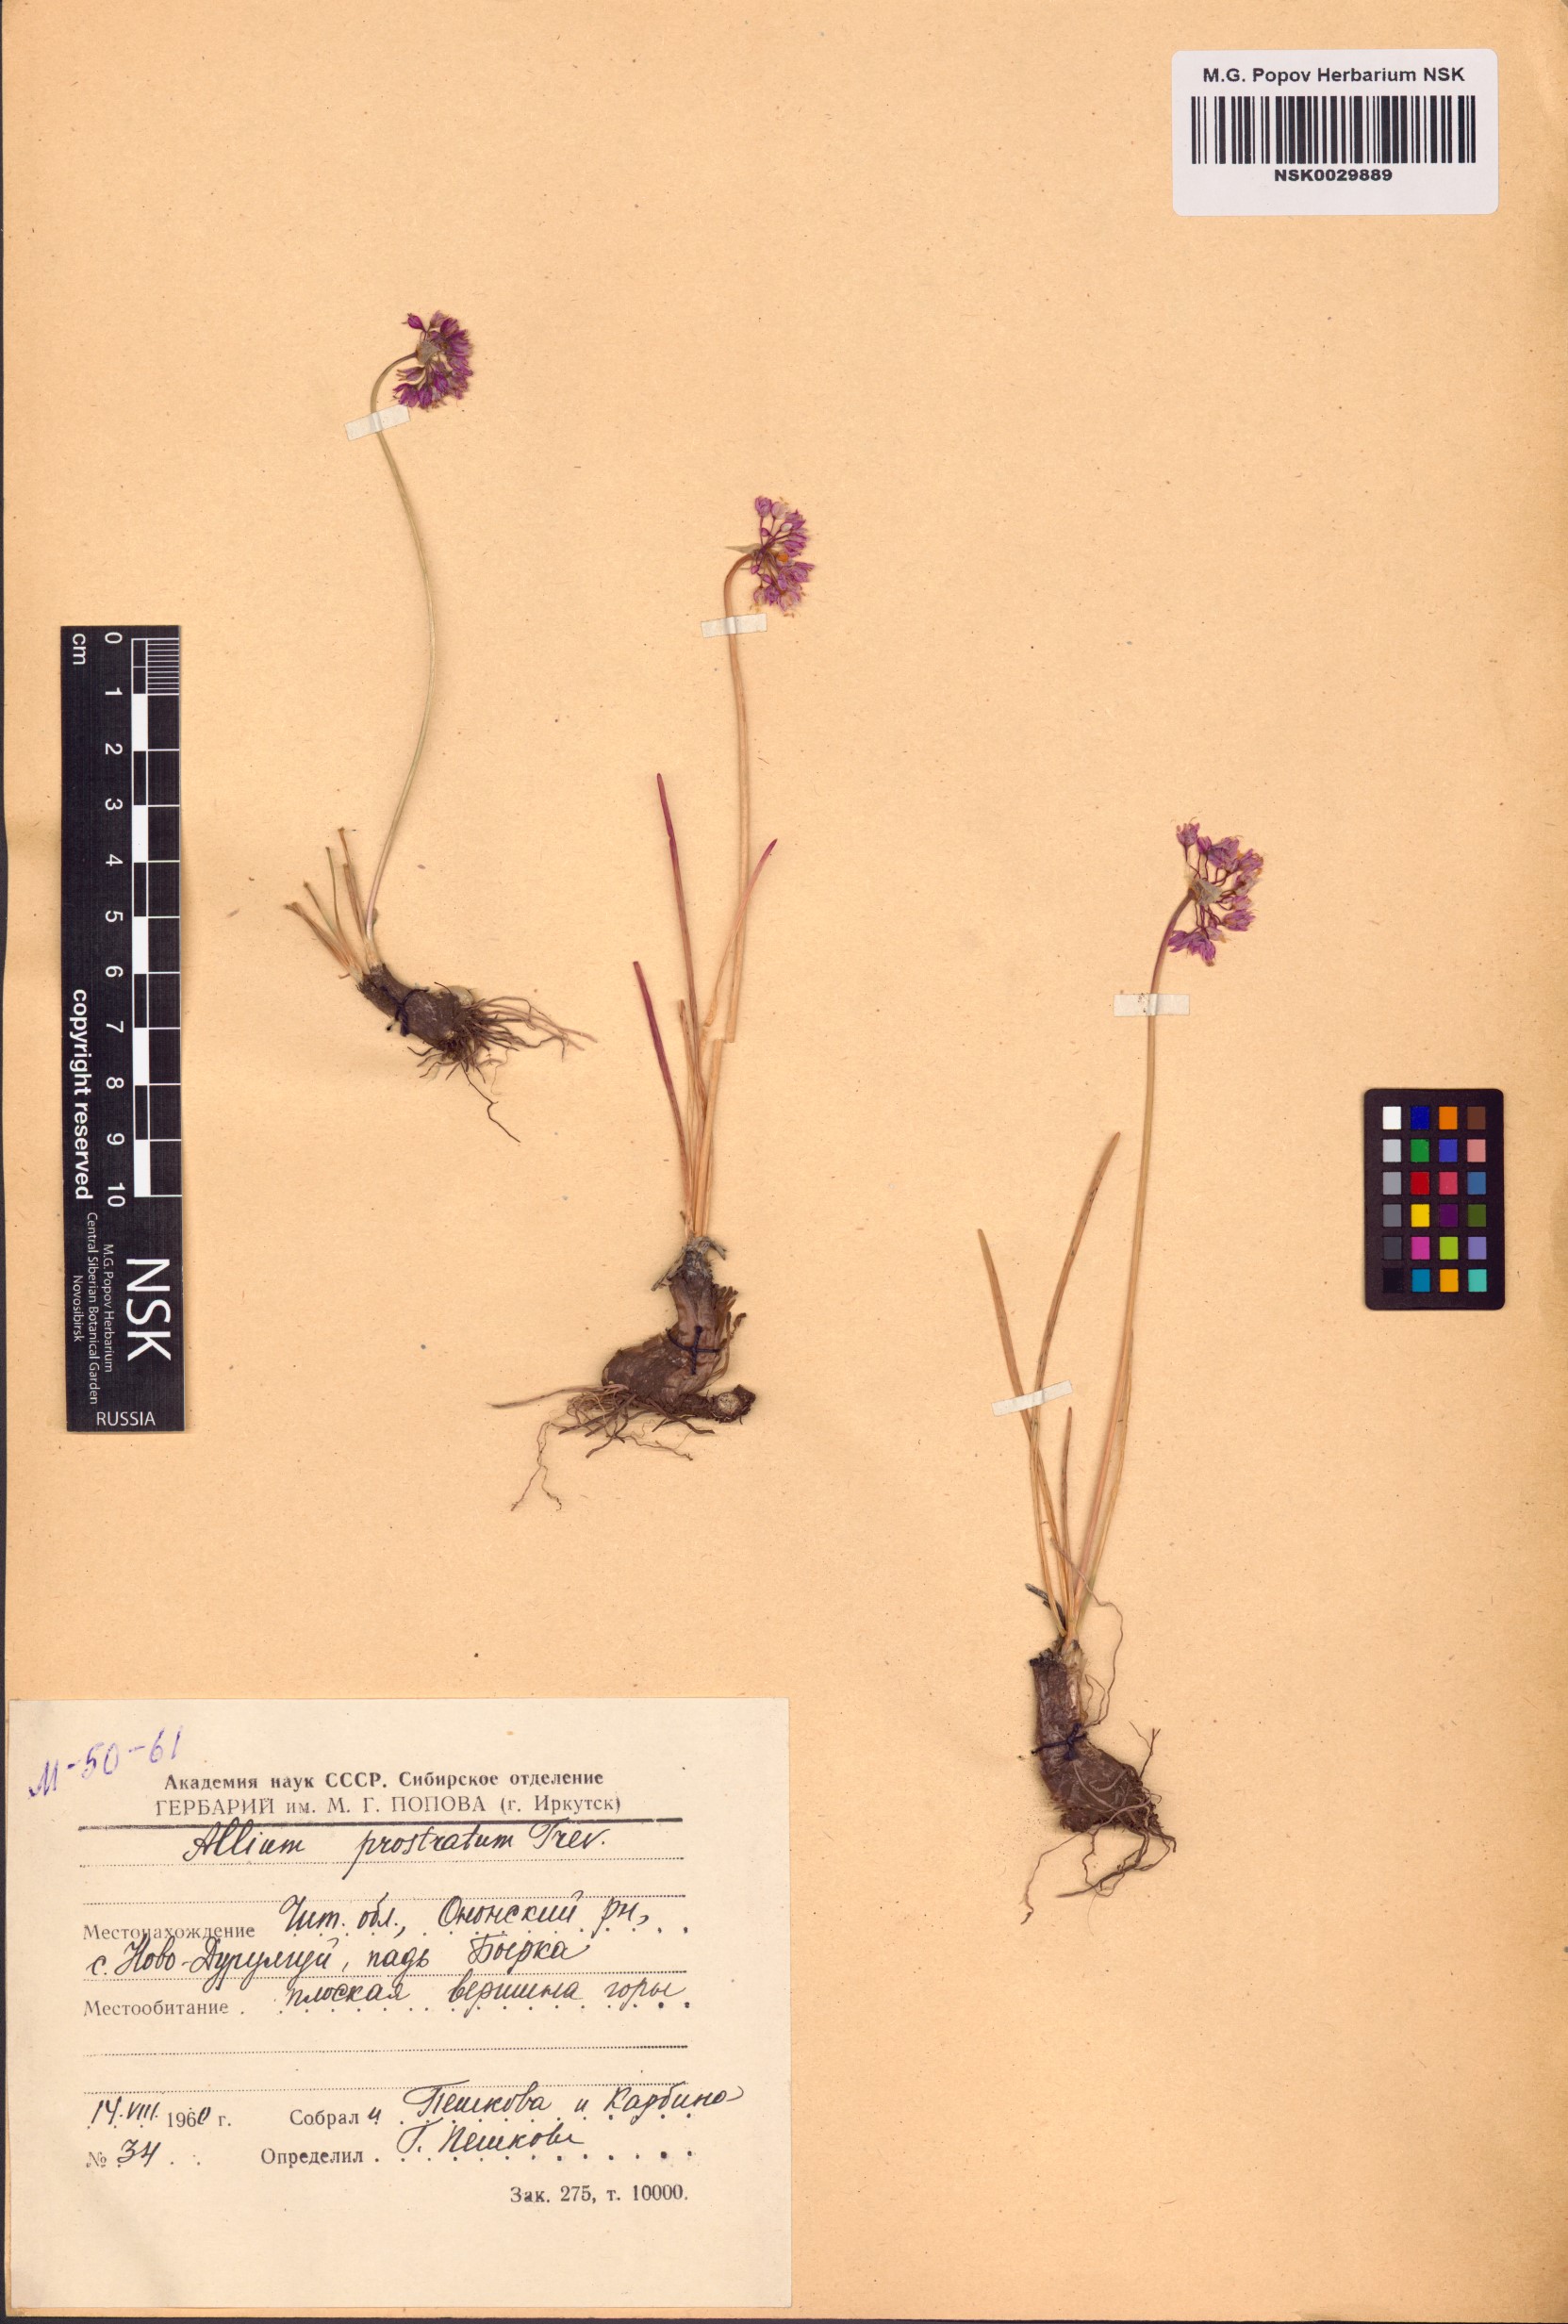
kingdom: Plantae
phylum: Tracheophyta
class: Liliopsida
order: Asparagales
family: Amaryllidaceae
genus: Allium
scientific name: Allium prostratum
